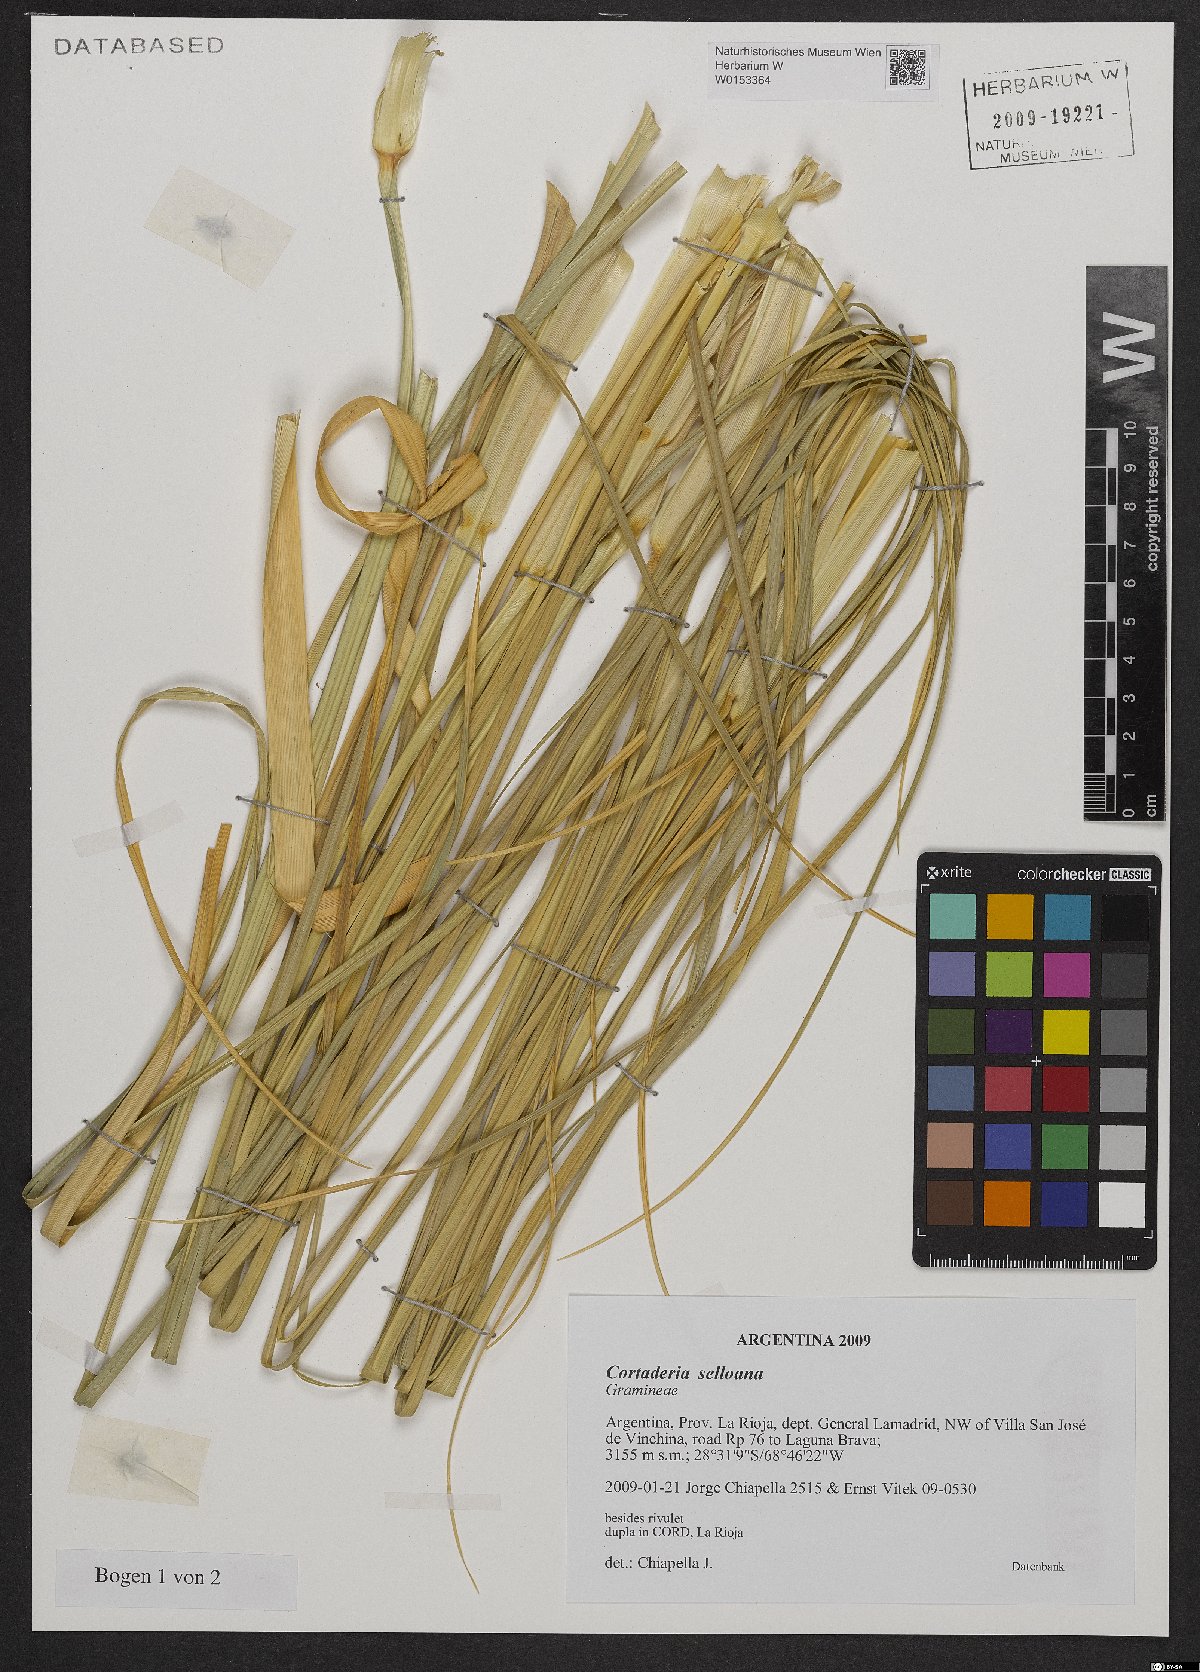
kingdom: Plantae
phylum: Tracheophyta
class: Liliopsida
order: Poales
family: Poaceae
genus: Cortaderia
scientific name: Cortaderia selloana
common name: Uruguayan pampas grass
